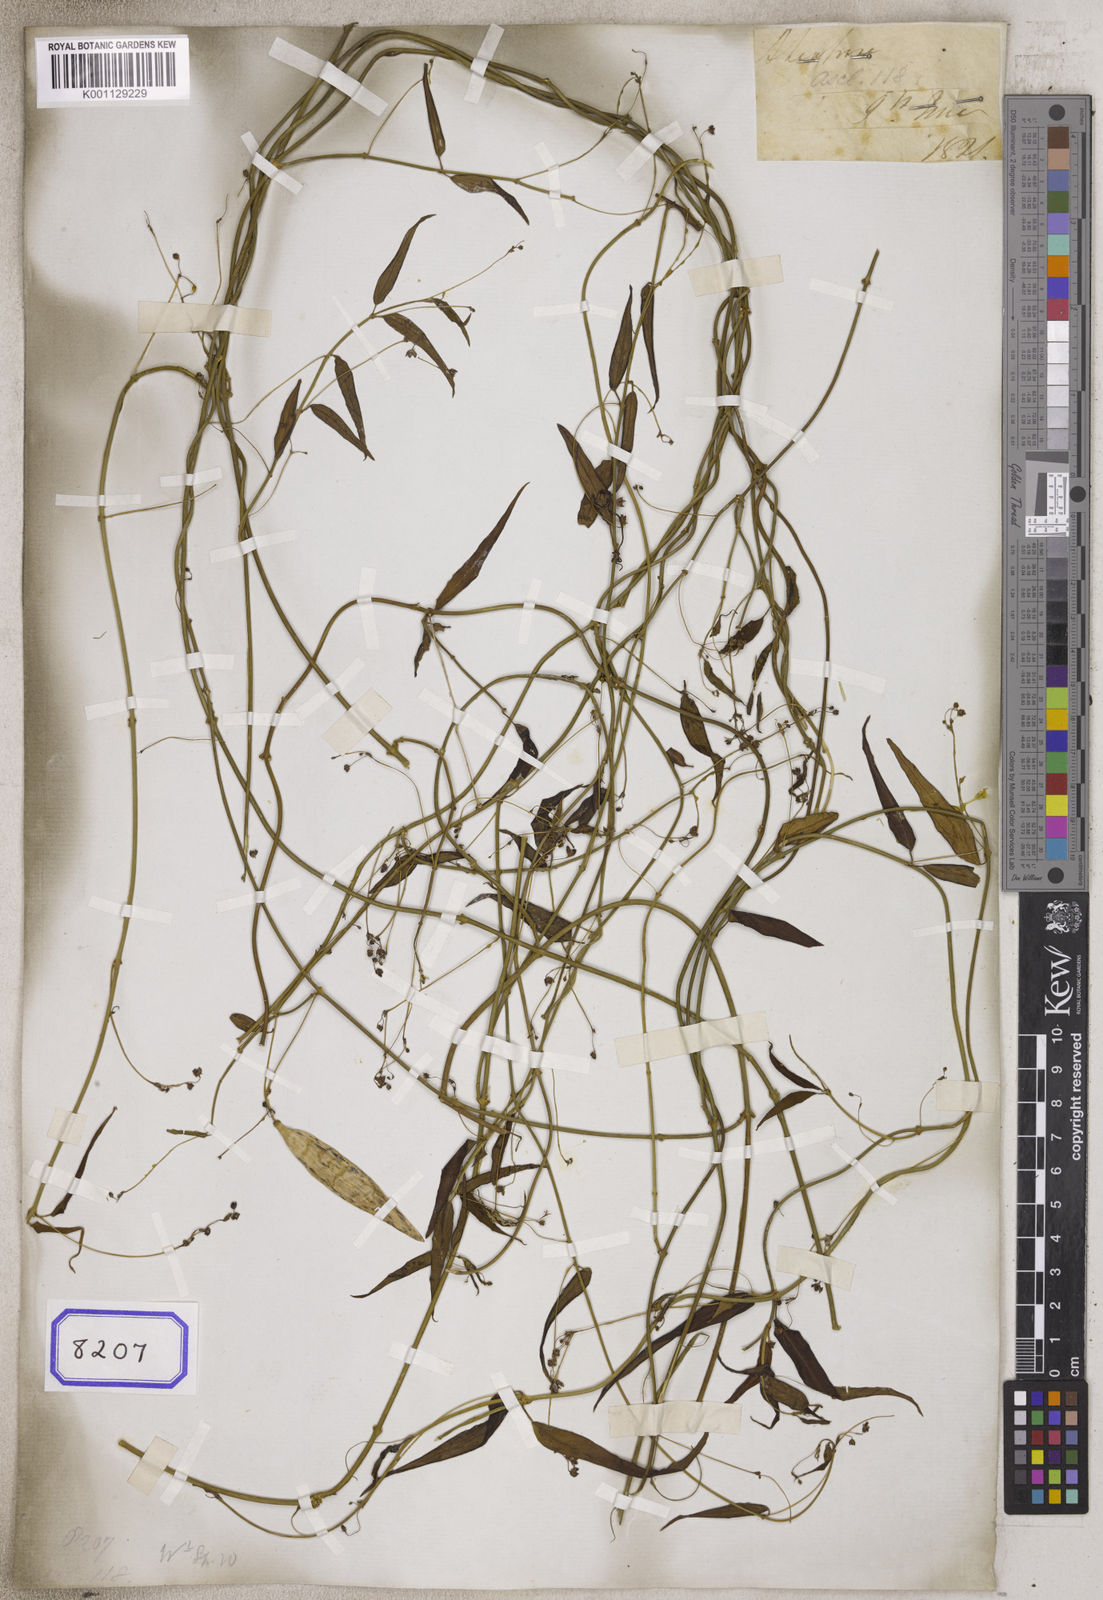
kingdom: Plantae
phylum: Tracheophyta
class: Magnoliopsida
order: Gentianales
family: Apocynaceae
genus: Vincetoxicum
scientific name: Vincetoxicum tenerrimum
